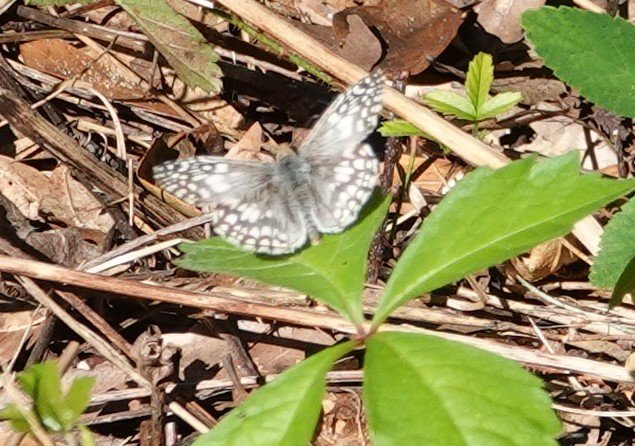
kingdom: Animalia
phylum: Arthropoda
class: Insecta
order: Lepidoptera
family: Hesperiidae
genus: Pyrgus
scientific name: Pyrgus oileus
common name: Tropical Checkered-Skipper
